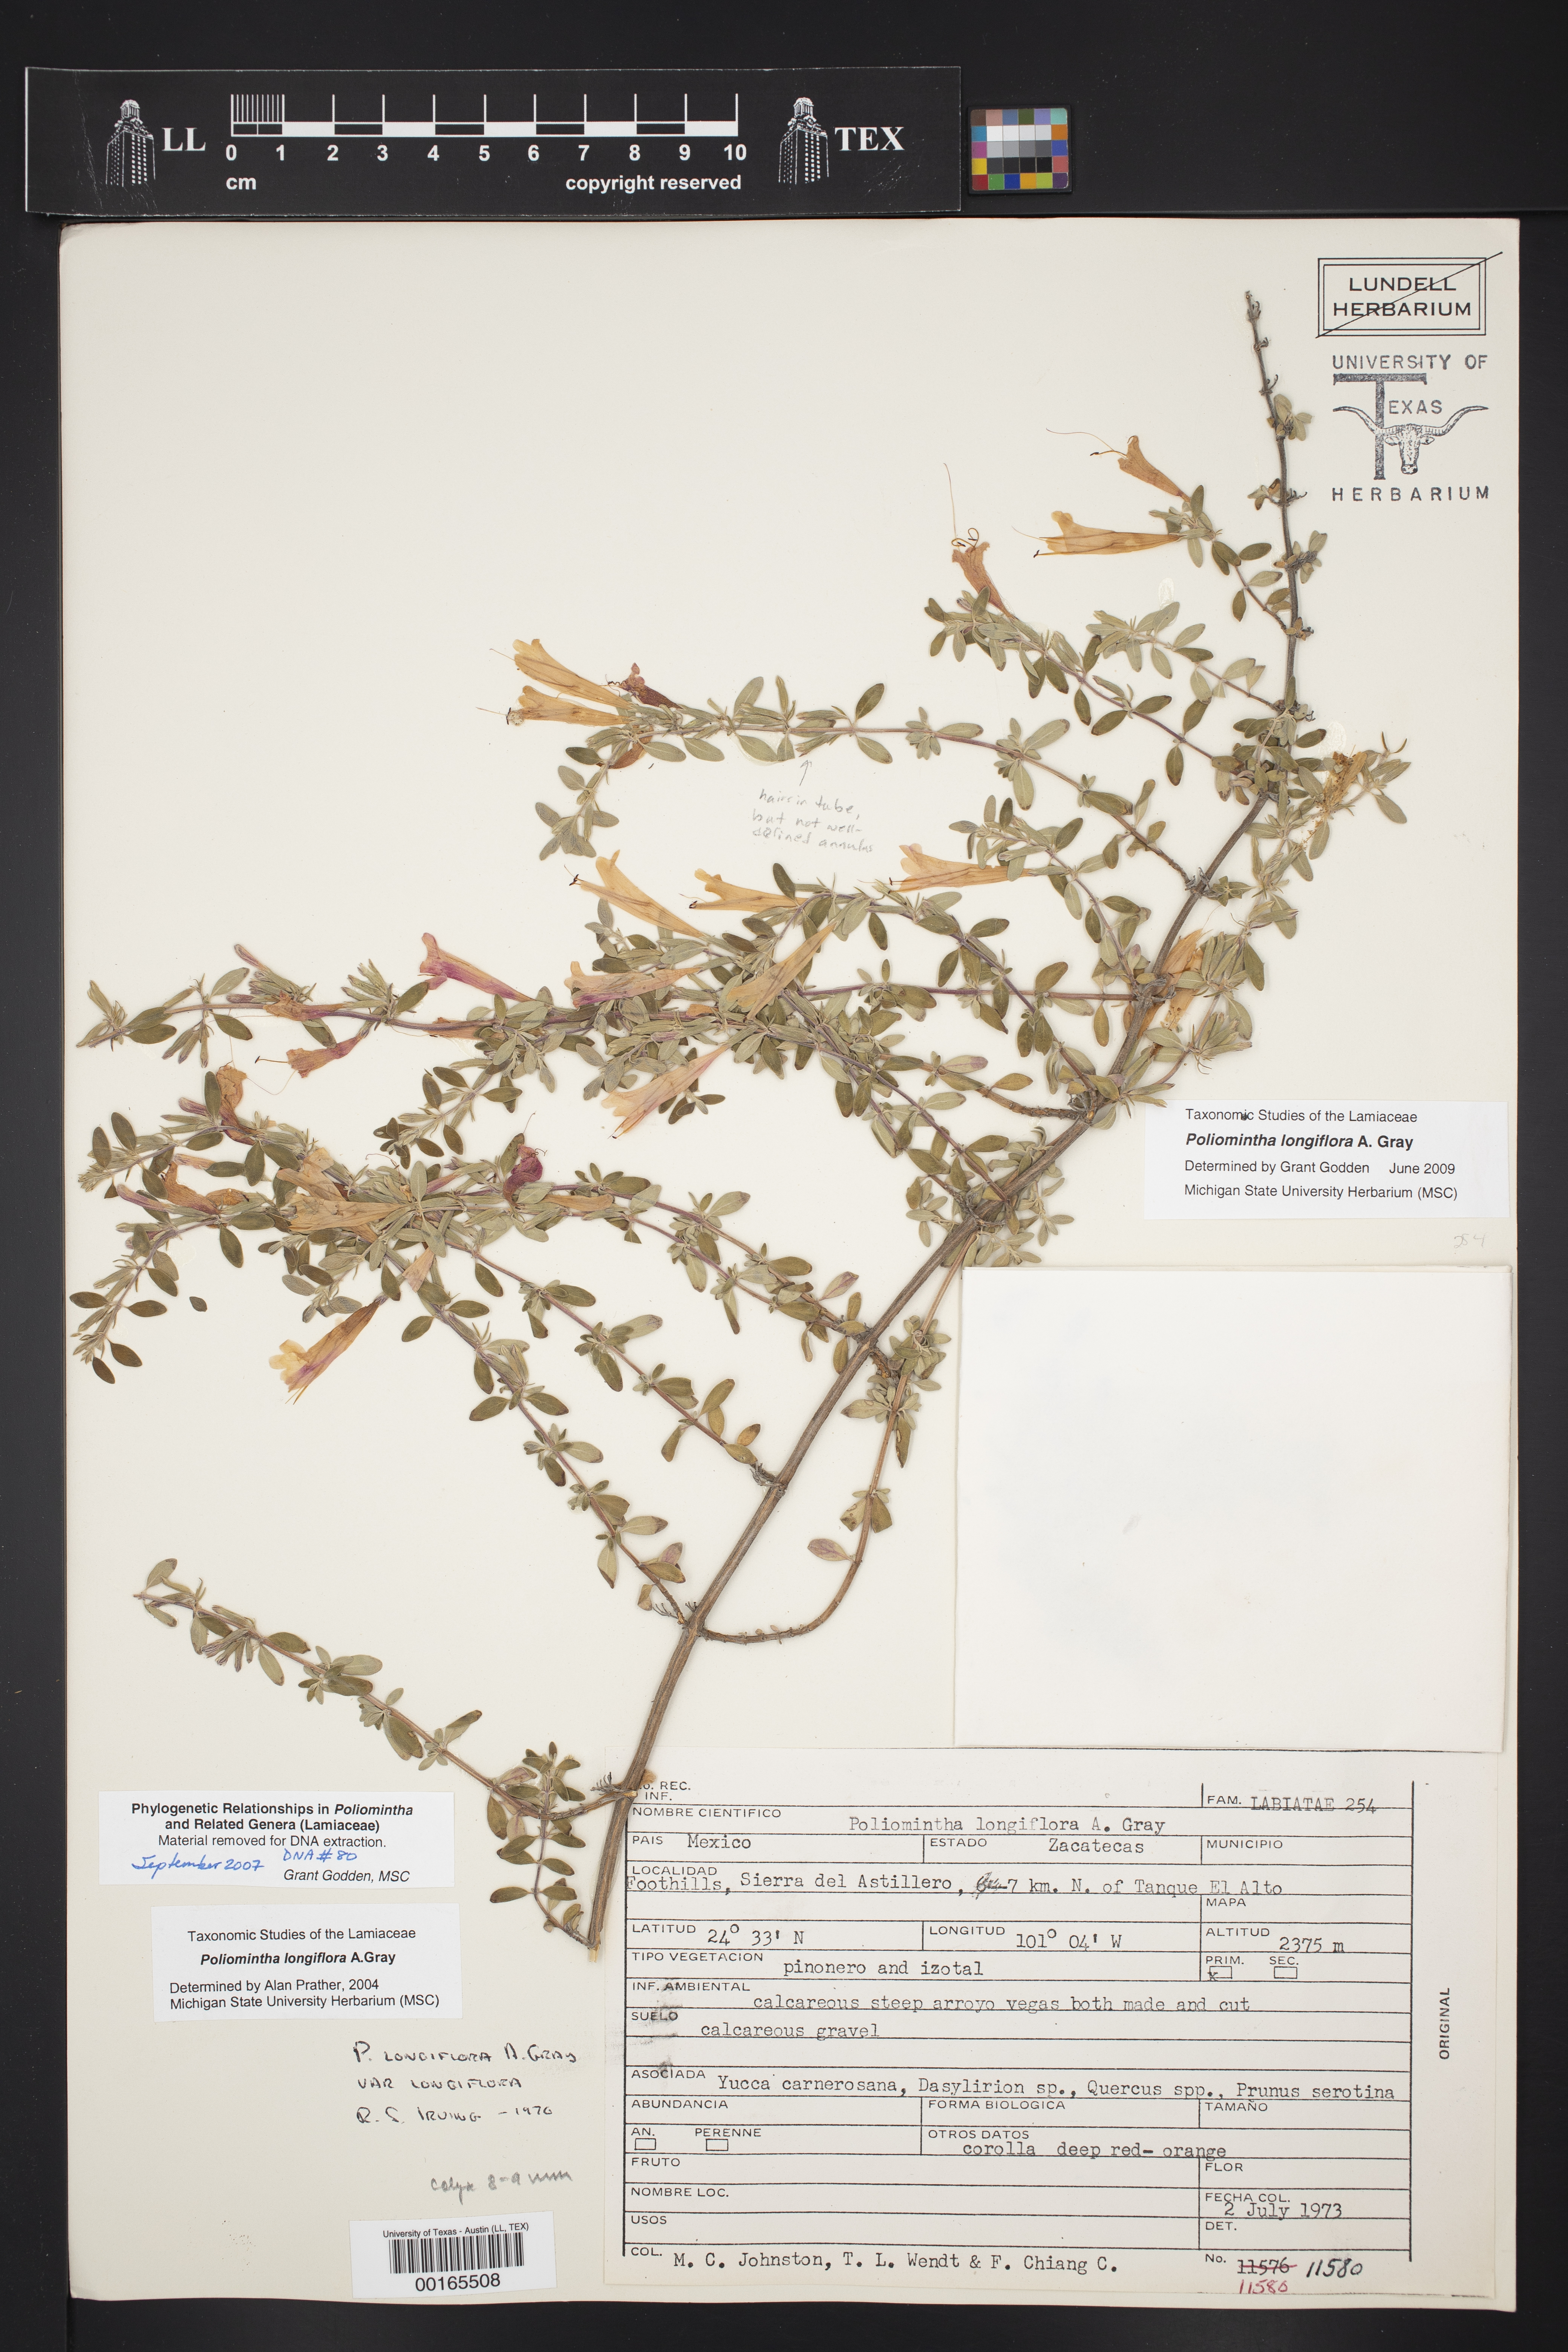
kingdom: Plantae
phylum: Tracheophyta
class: Magnoliopsida
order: Lamiales
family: Lamiaceae
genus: Poliomintha
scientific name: Poliomintha longiflora
